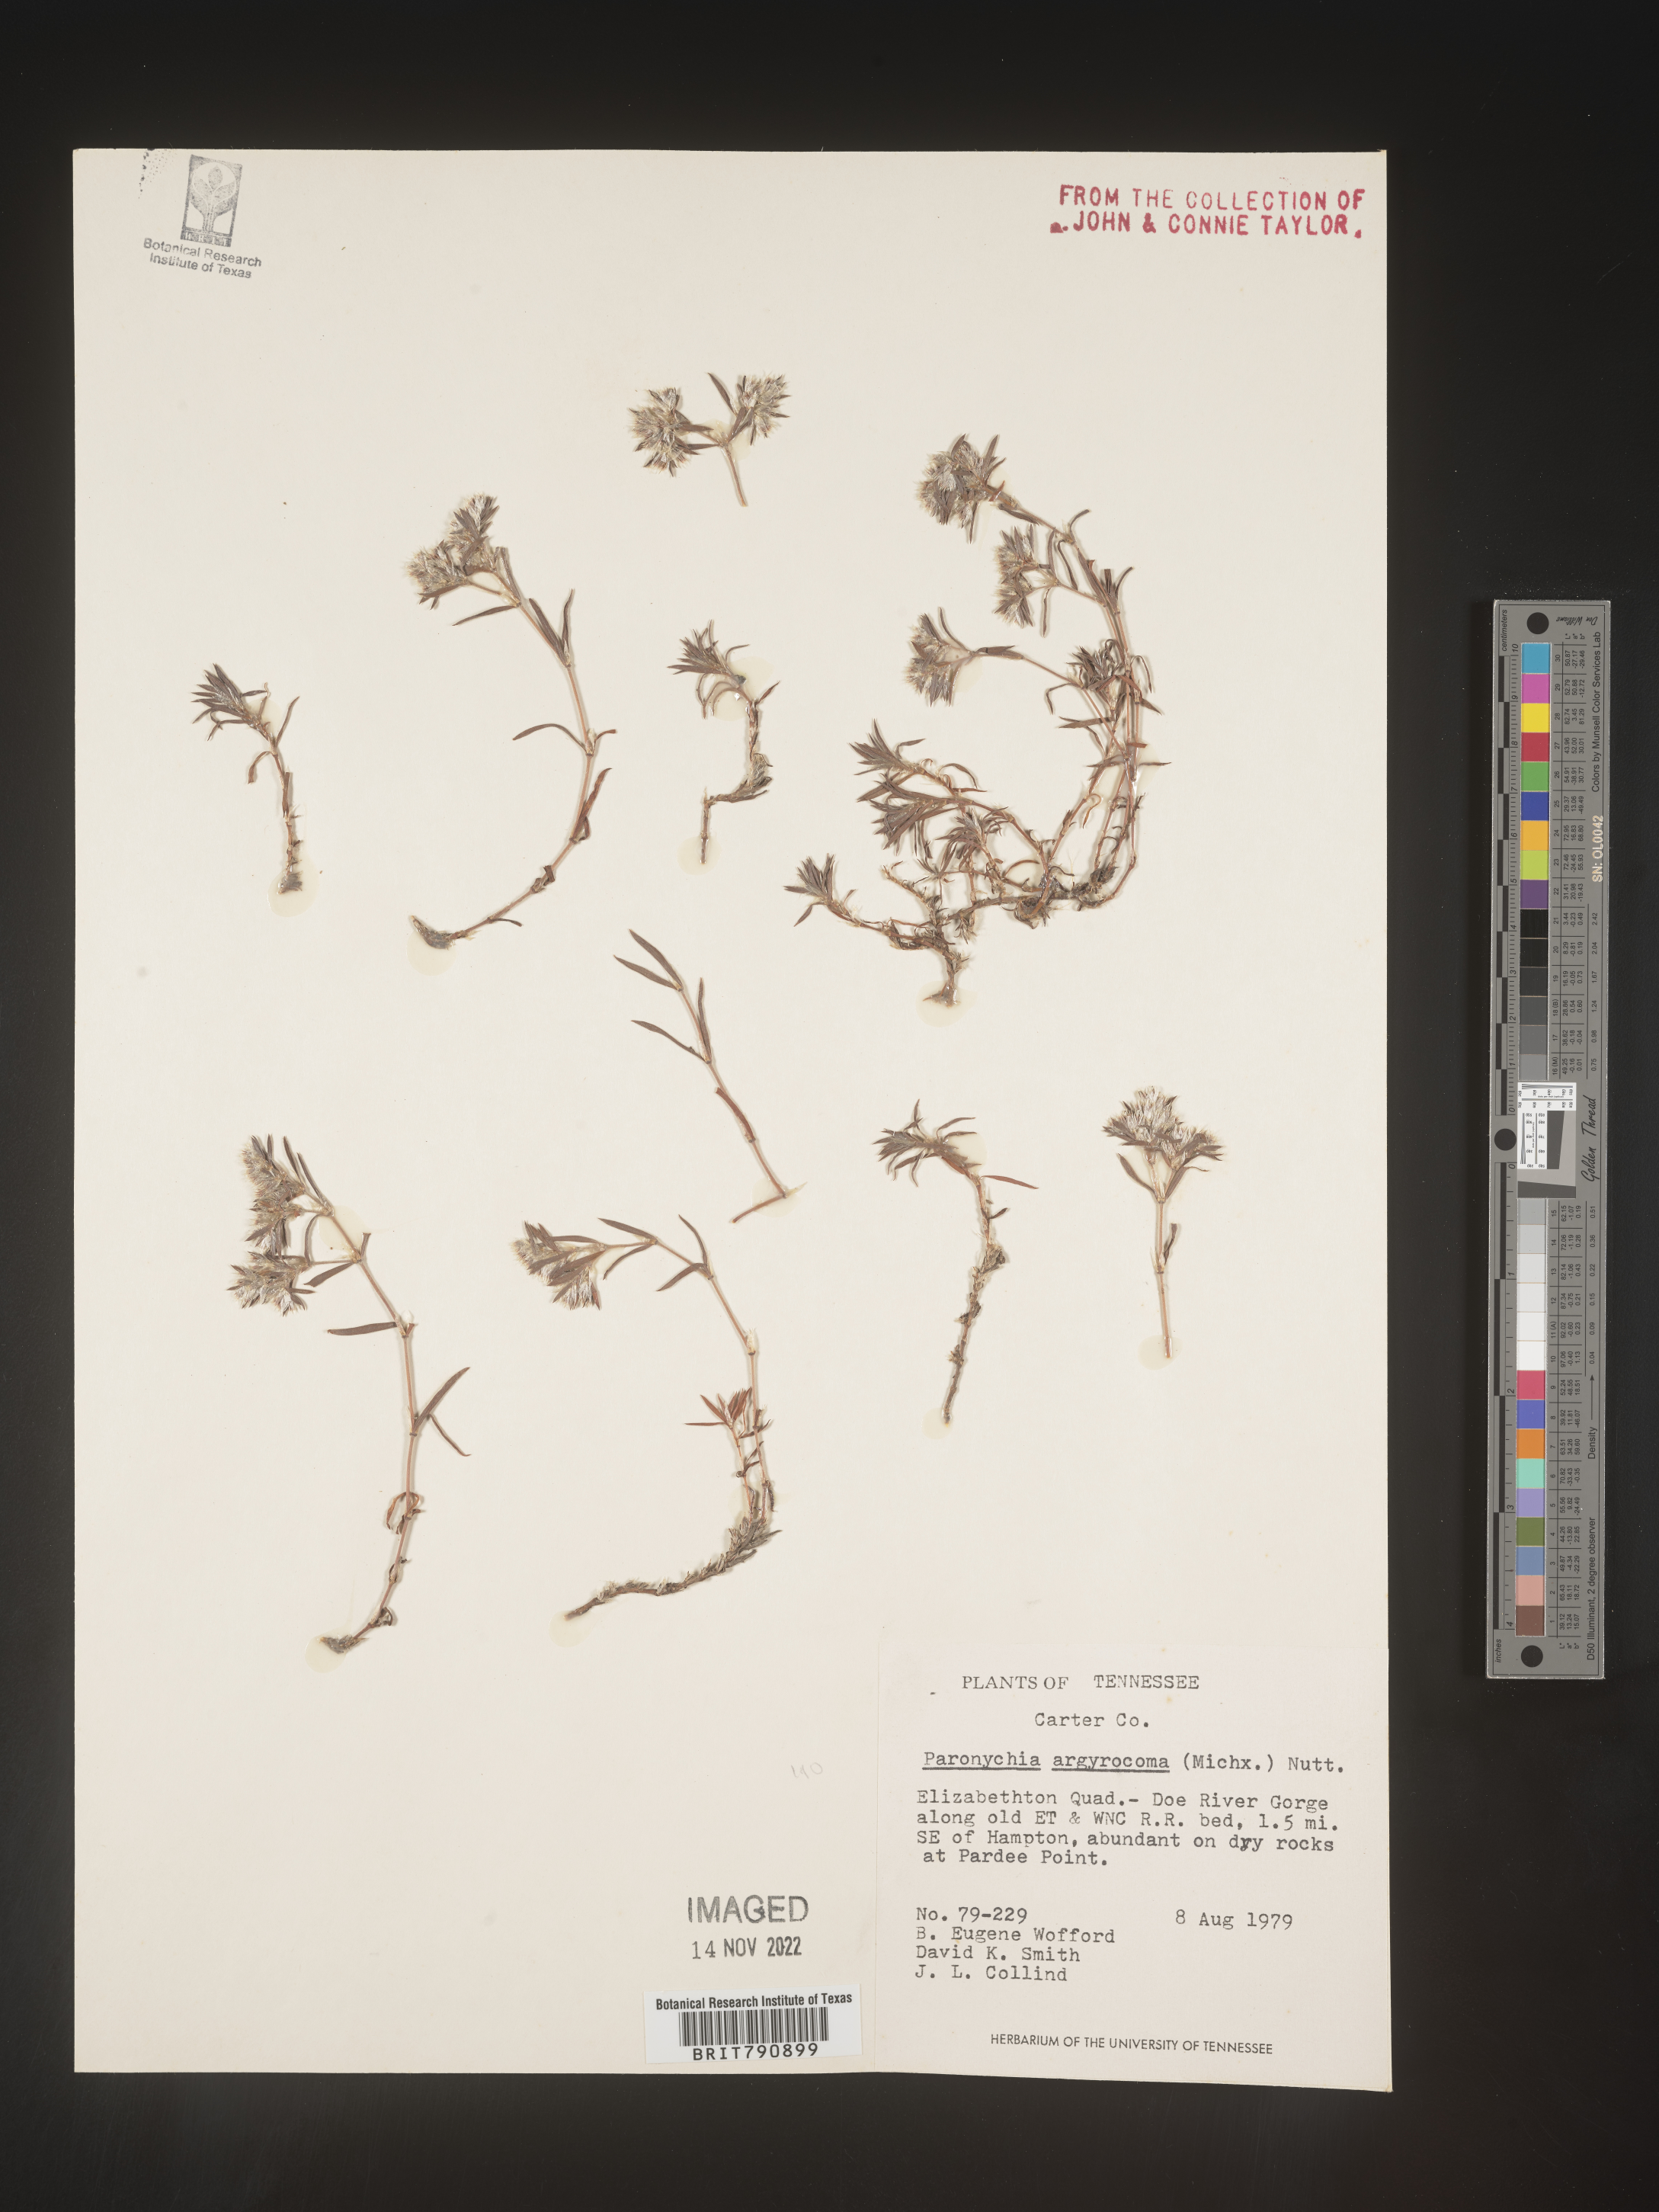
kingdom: Plantae
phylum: Tracheophyta
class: Magnoliopsida
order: Caryophyllales
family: Caryophyllaceae
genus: Paronychia
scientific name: Paronychia argyrocoma
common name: Silverling
